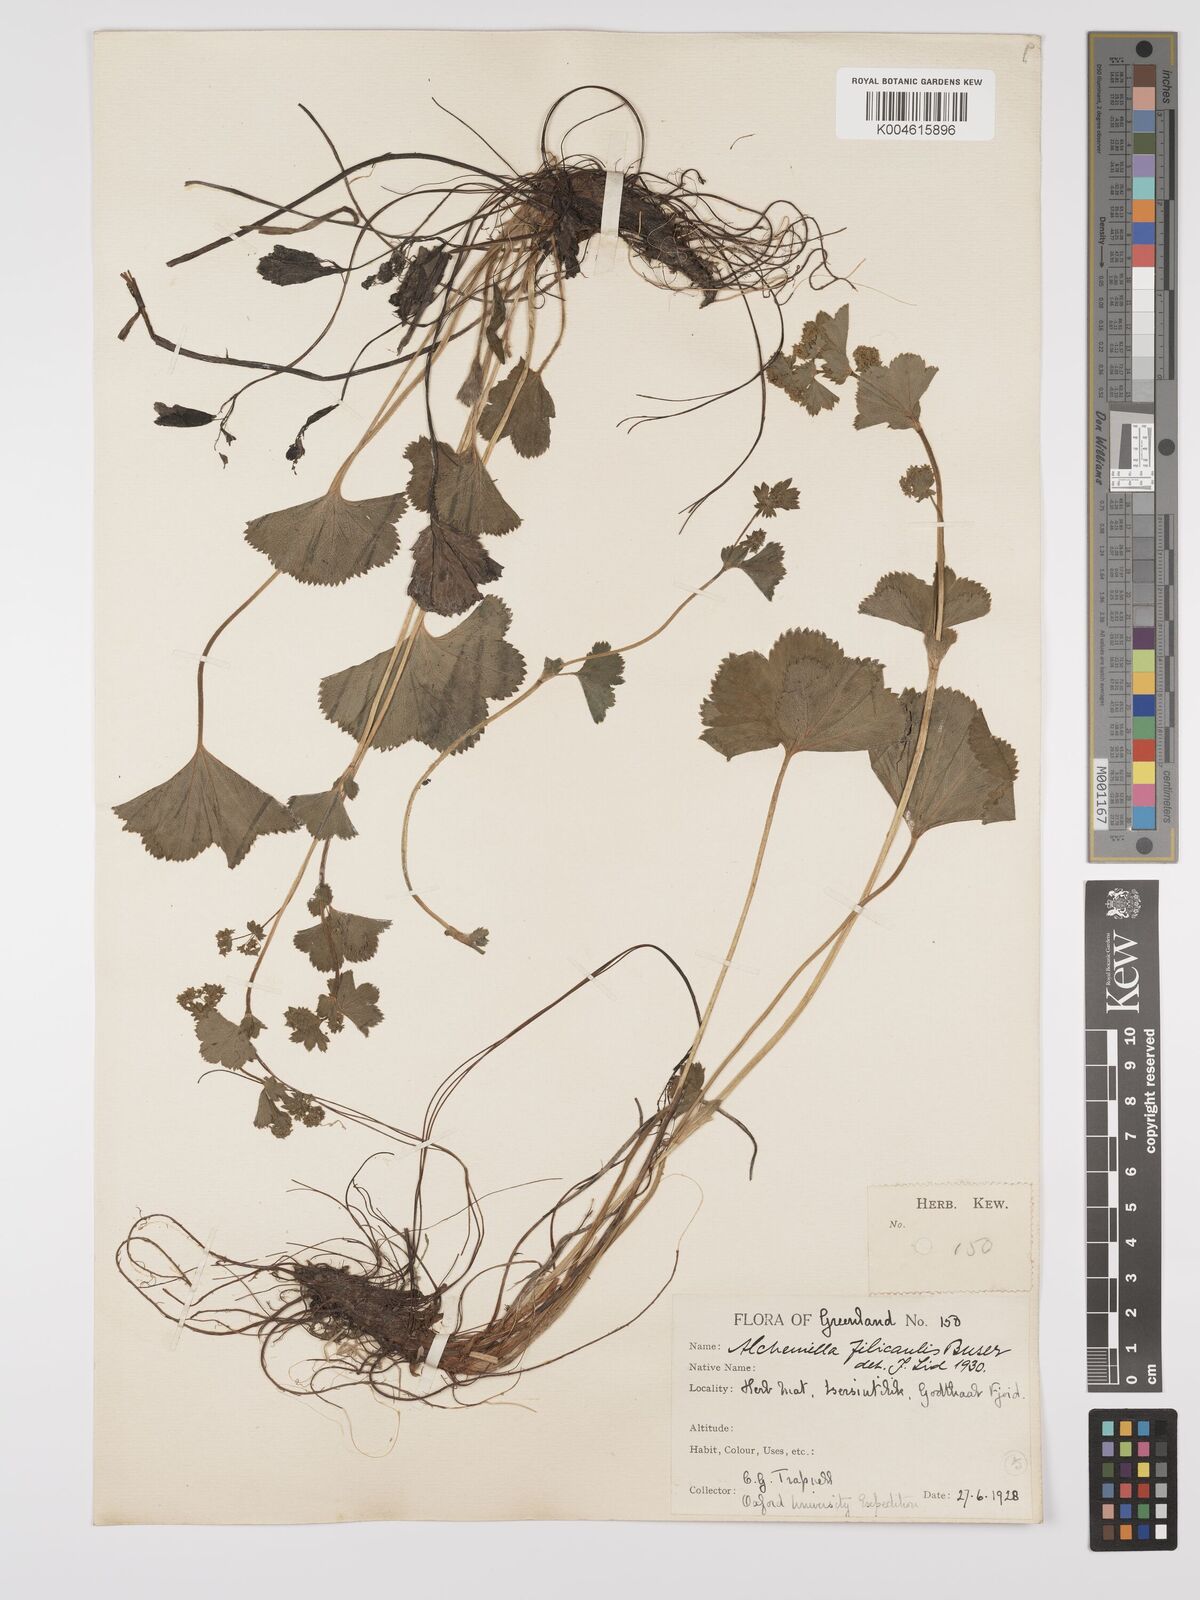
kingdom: Plantae
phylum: Tracheophyta
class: Magnoliopsida
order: Rosales
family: Rosaceae
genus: Alchemilla
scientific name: Alchemilla filicaulis
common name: Hairy lady's-mantle
